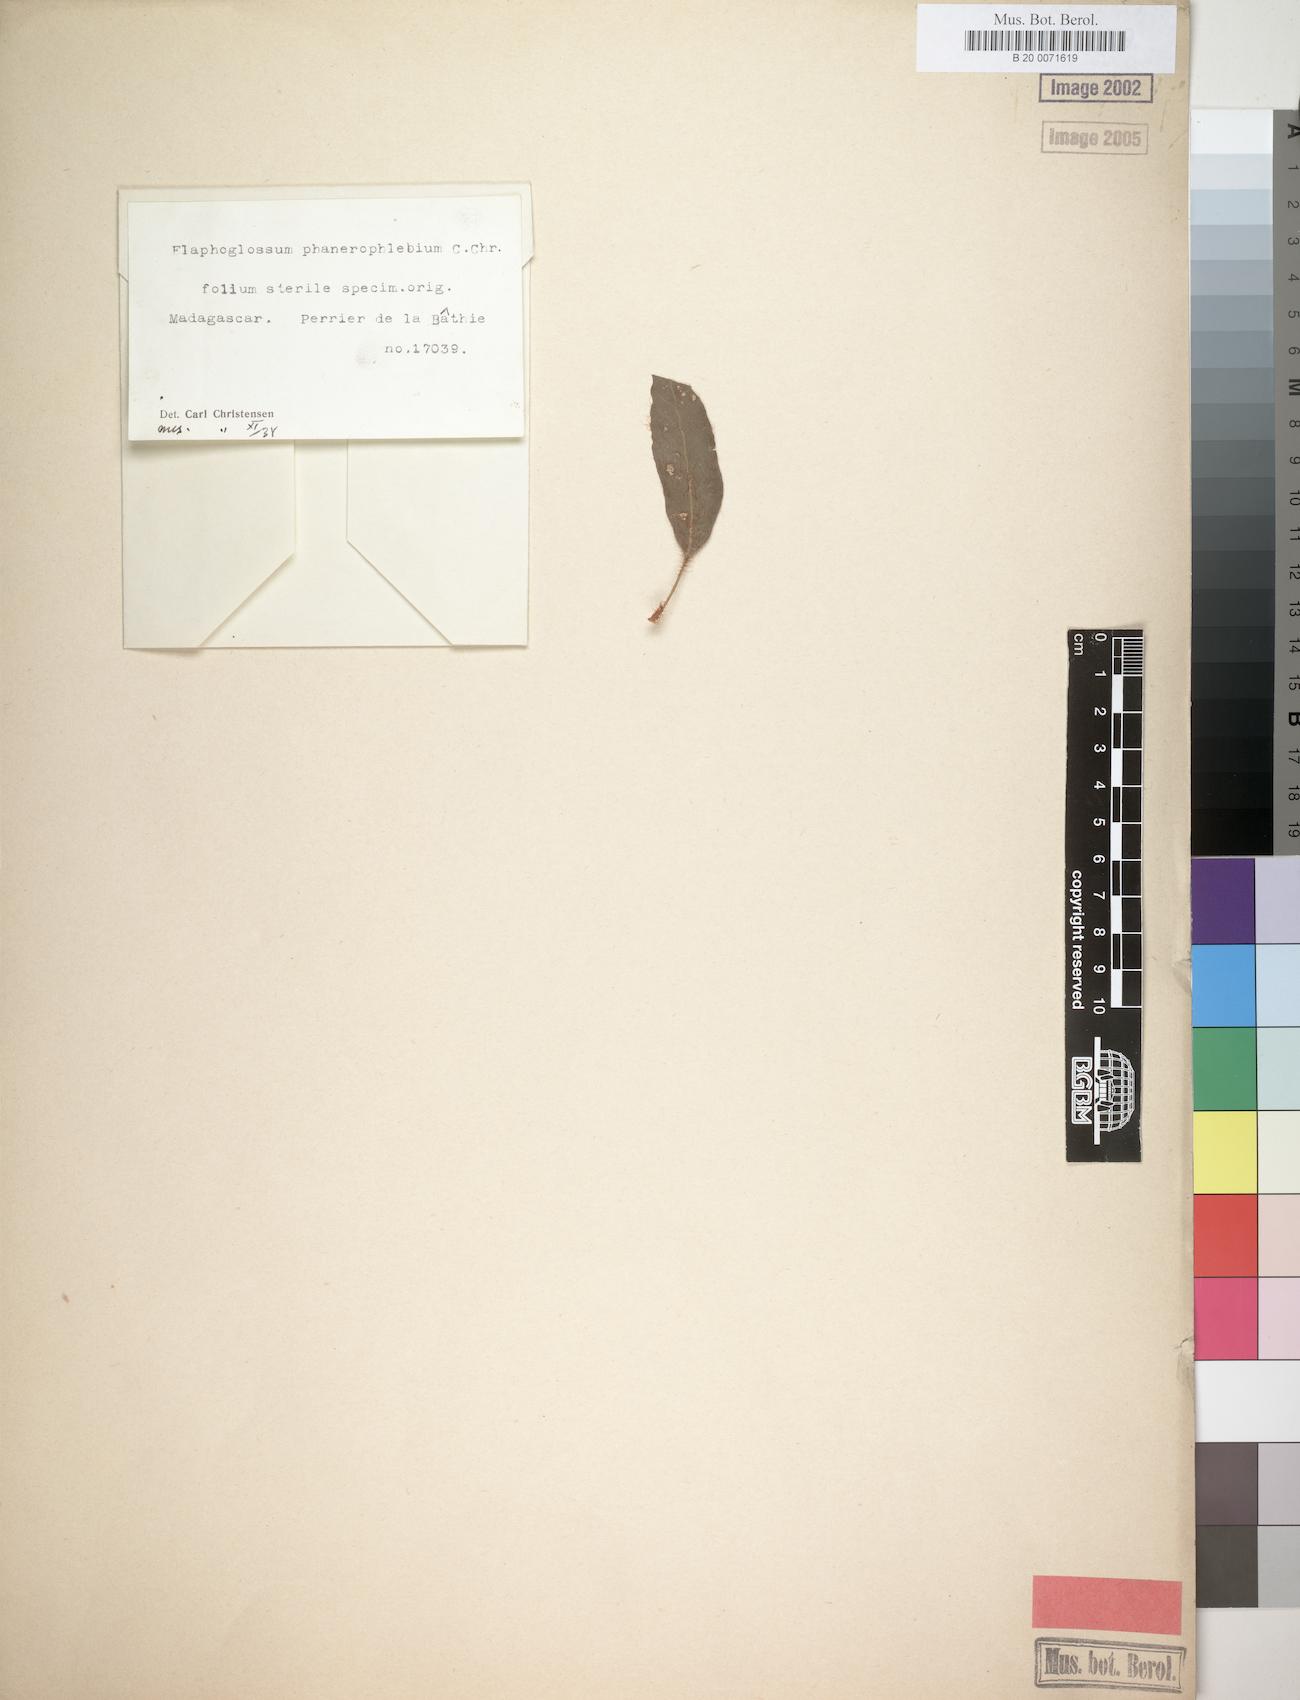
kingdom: Plantae
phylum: Tracheophyta
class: Polypodiopsida
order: Polypodiales
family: Dryopteridaceae
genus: Elaphoglossum
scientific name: Elaphoglossum phanerophlebium
